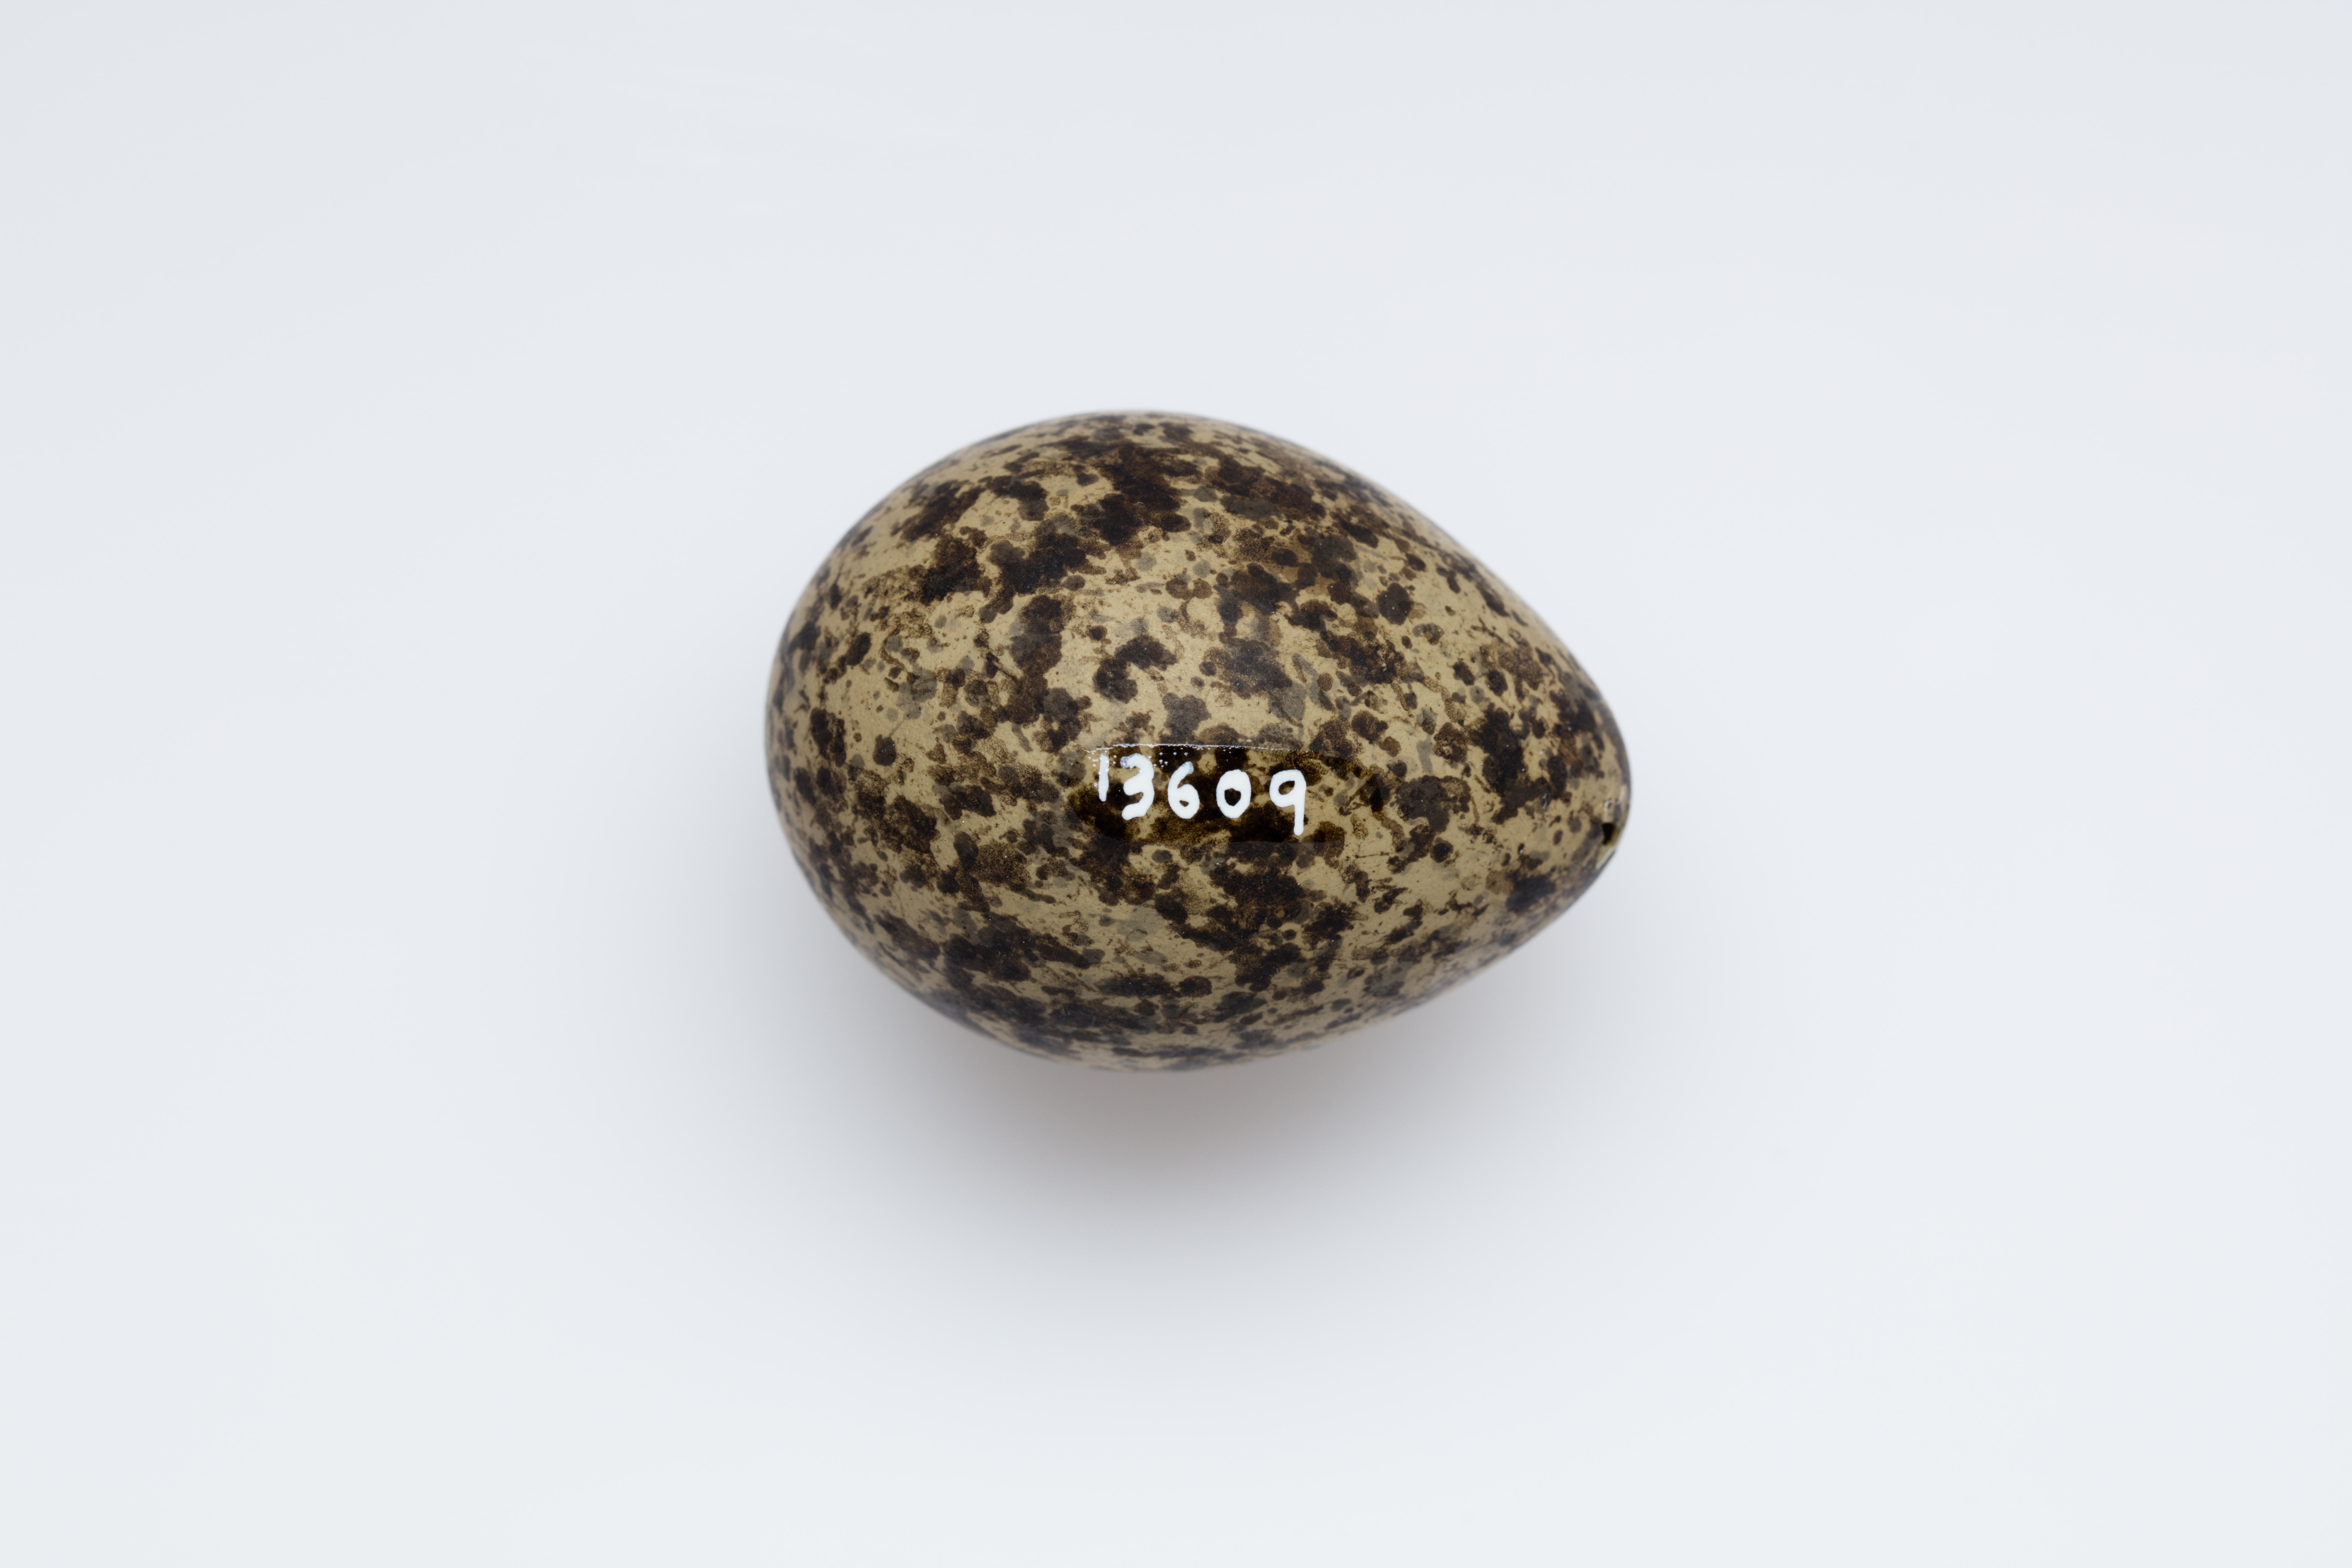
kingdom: Animalia
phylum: Chordata
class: Aves
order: Charadriiformes
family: Charadriidae
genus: Vanellus
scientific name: Vanellus miles
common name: Masked lapwing
